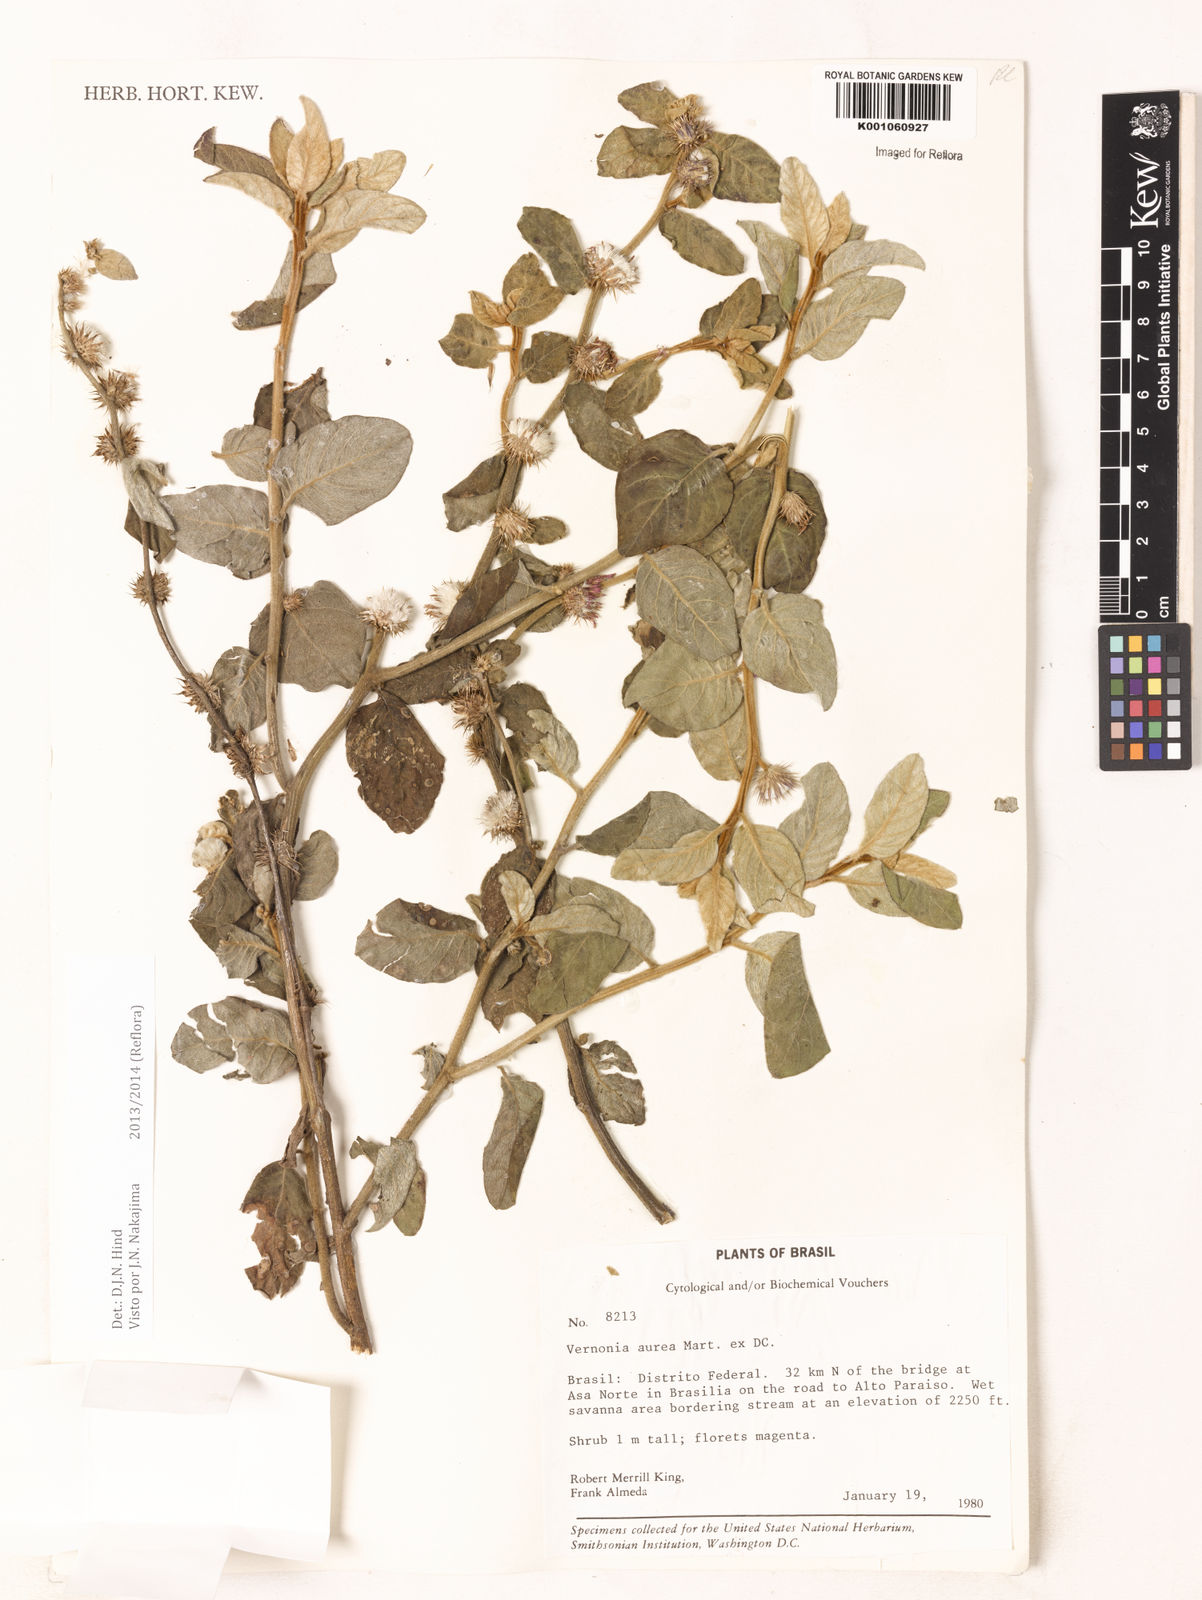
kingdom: Plantae
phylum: Tracheophyta
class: Magnoliopsida
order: Asterales
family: Asteraceae
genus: Lepidaploa
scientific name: Lepidaploa aurea
